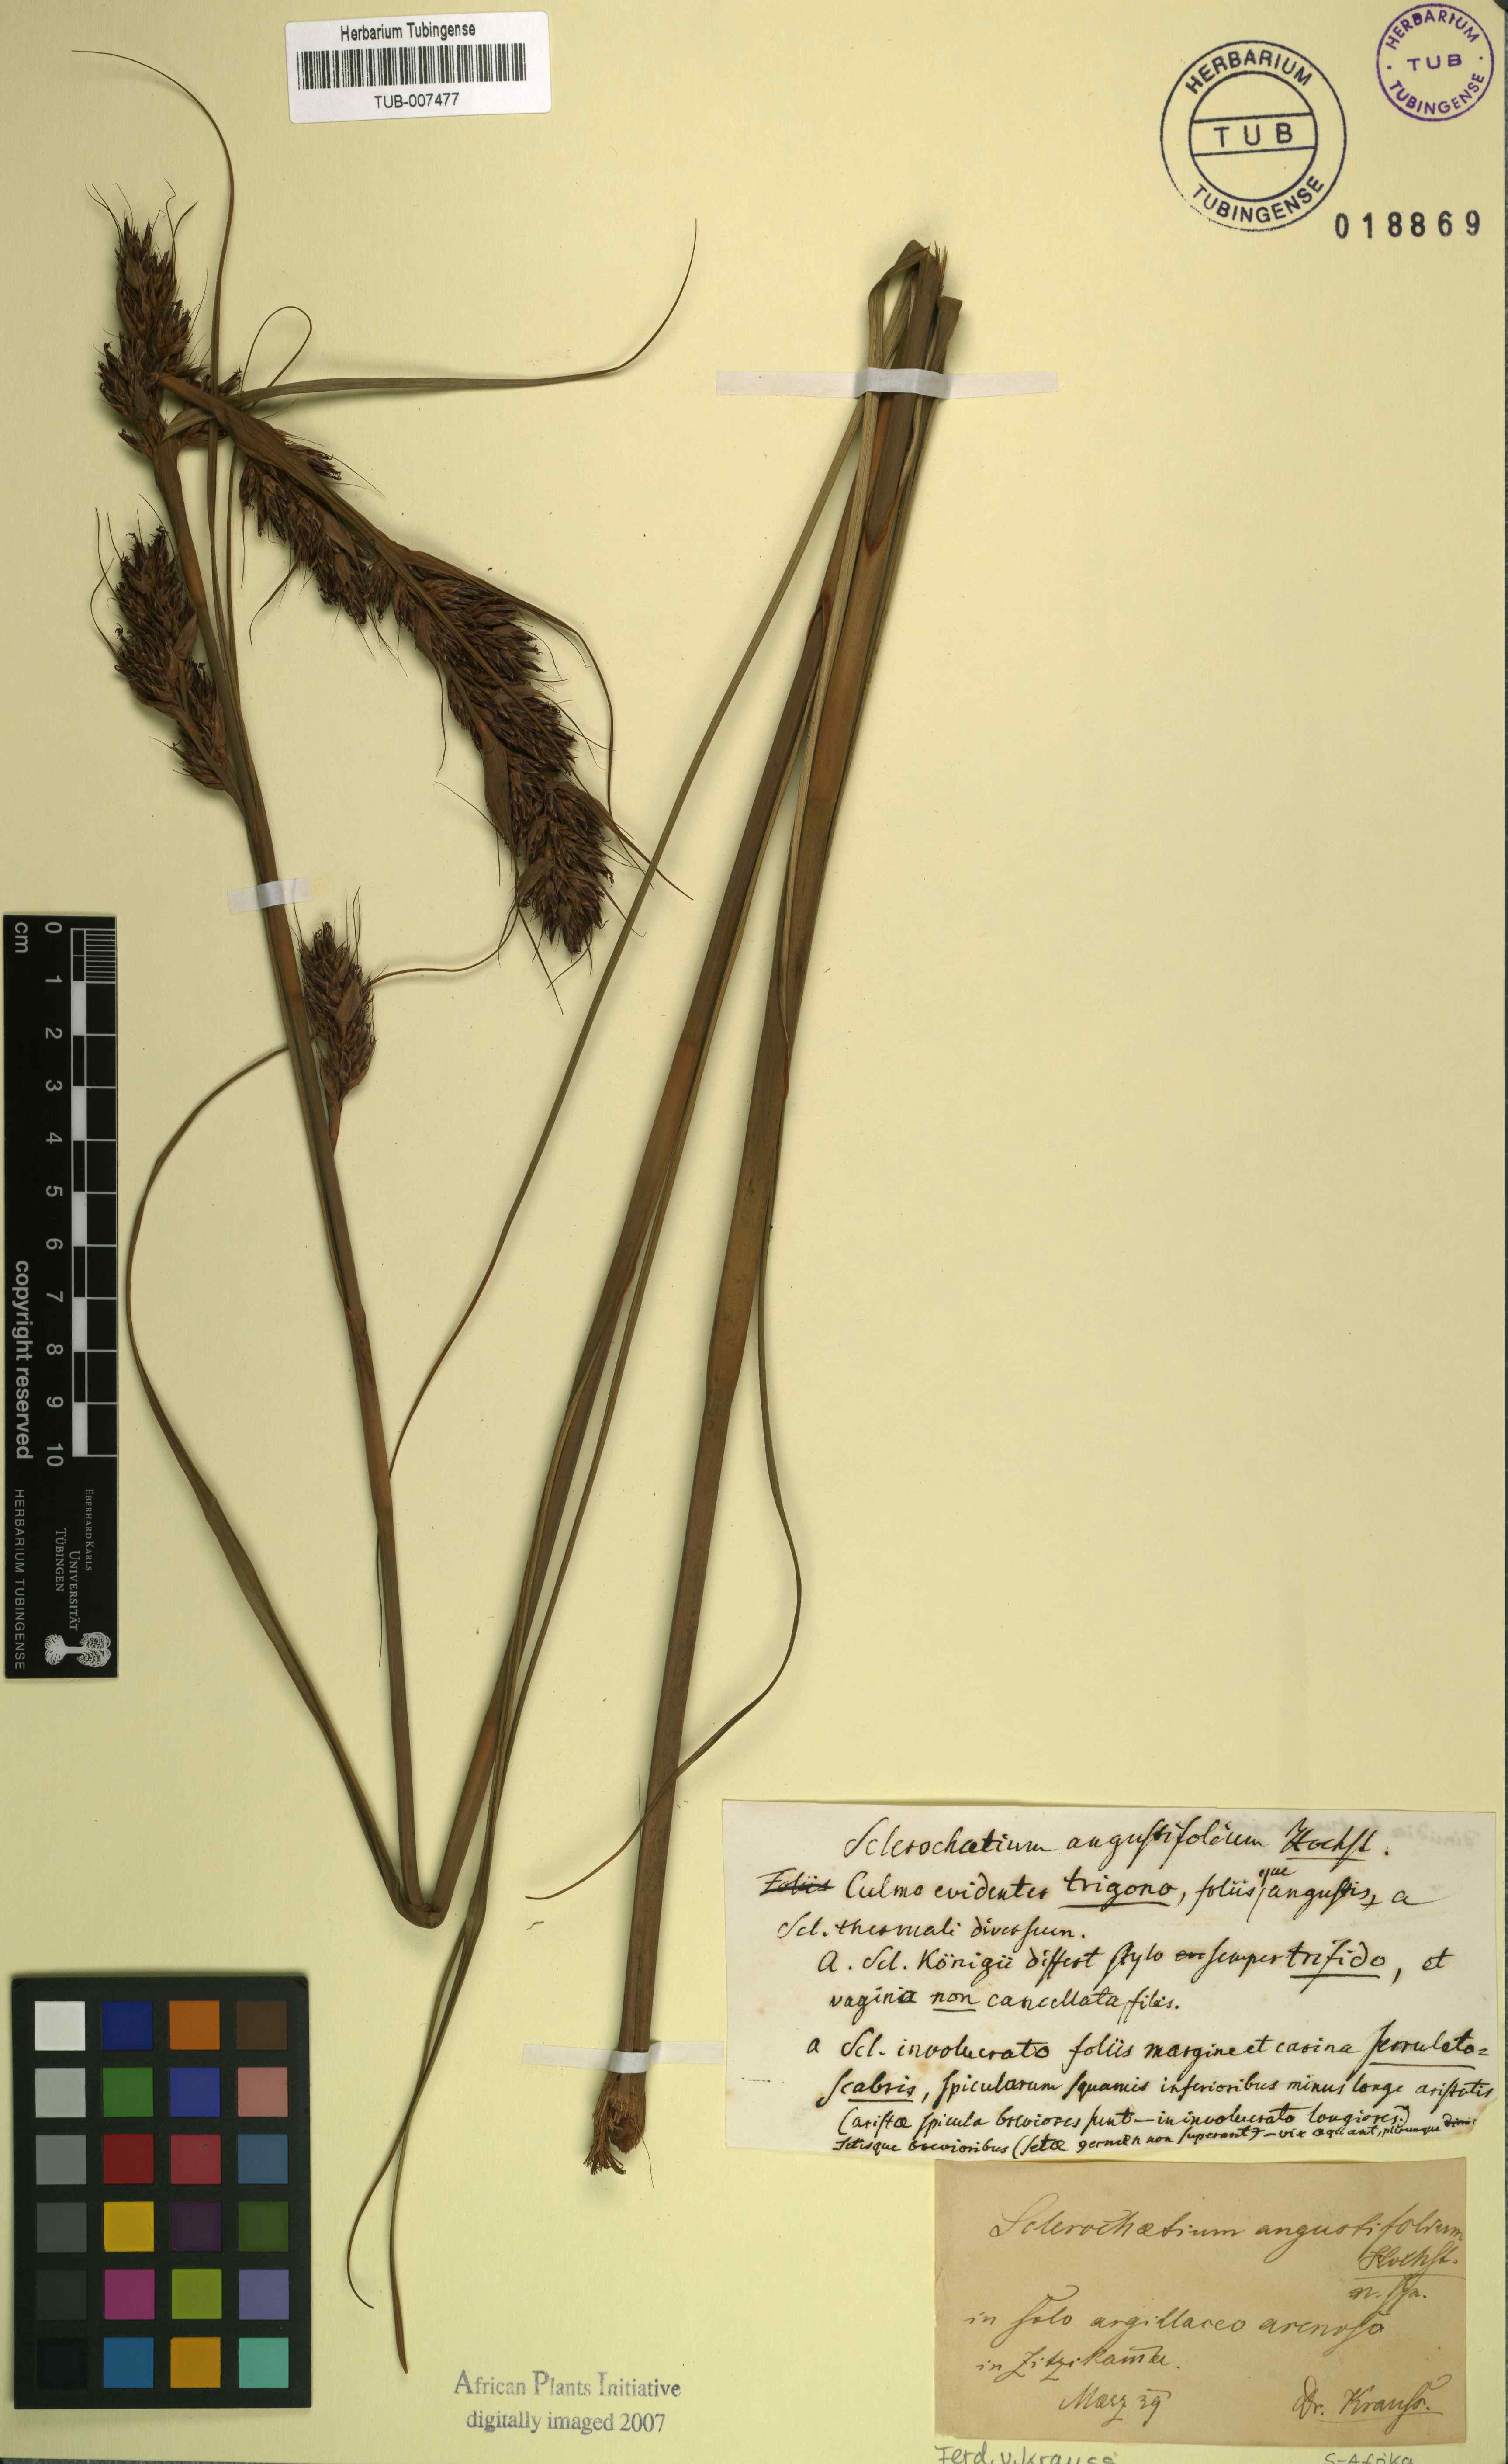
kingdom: Plantae
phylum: Tracheophyta
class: Liliopsida
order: Poales
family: Cyperaceae
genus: Tetraria
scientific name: Tetraria bromoides
